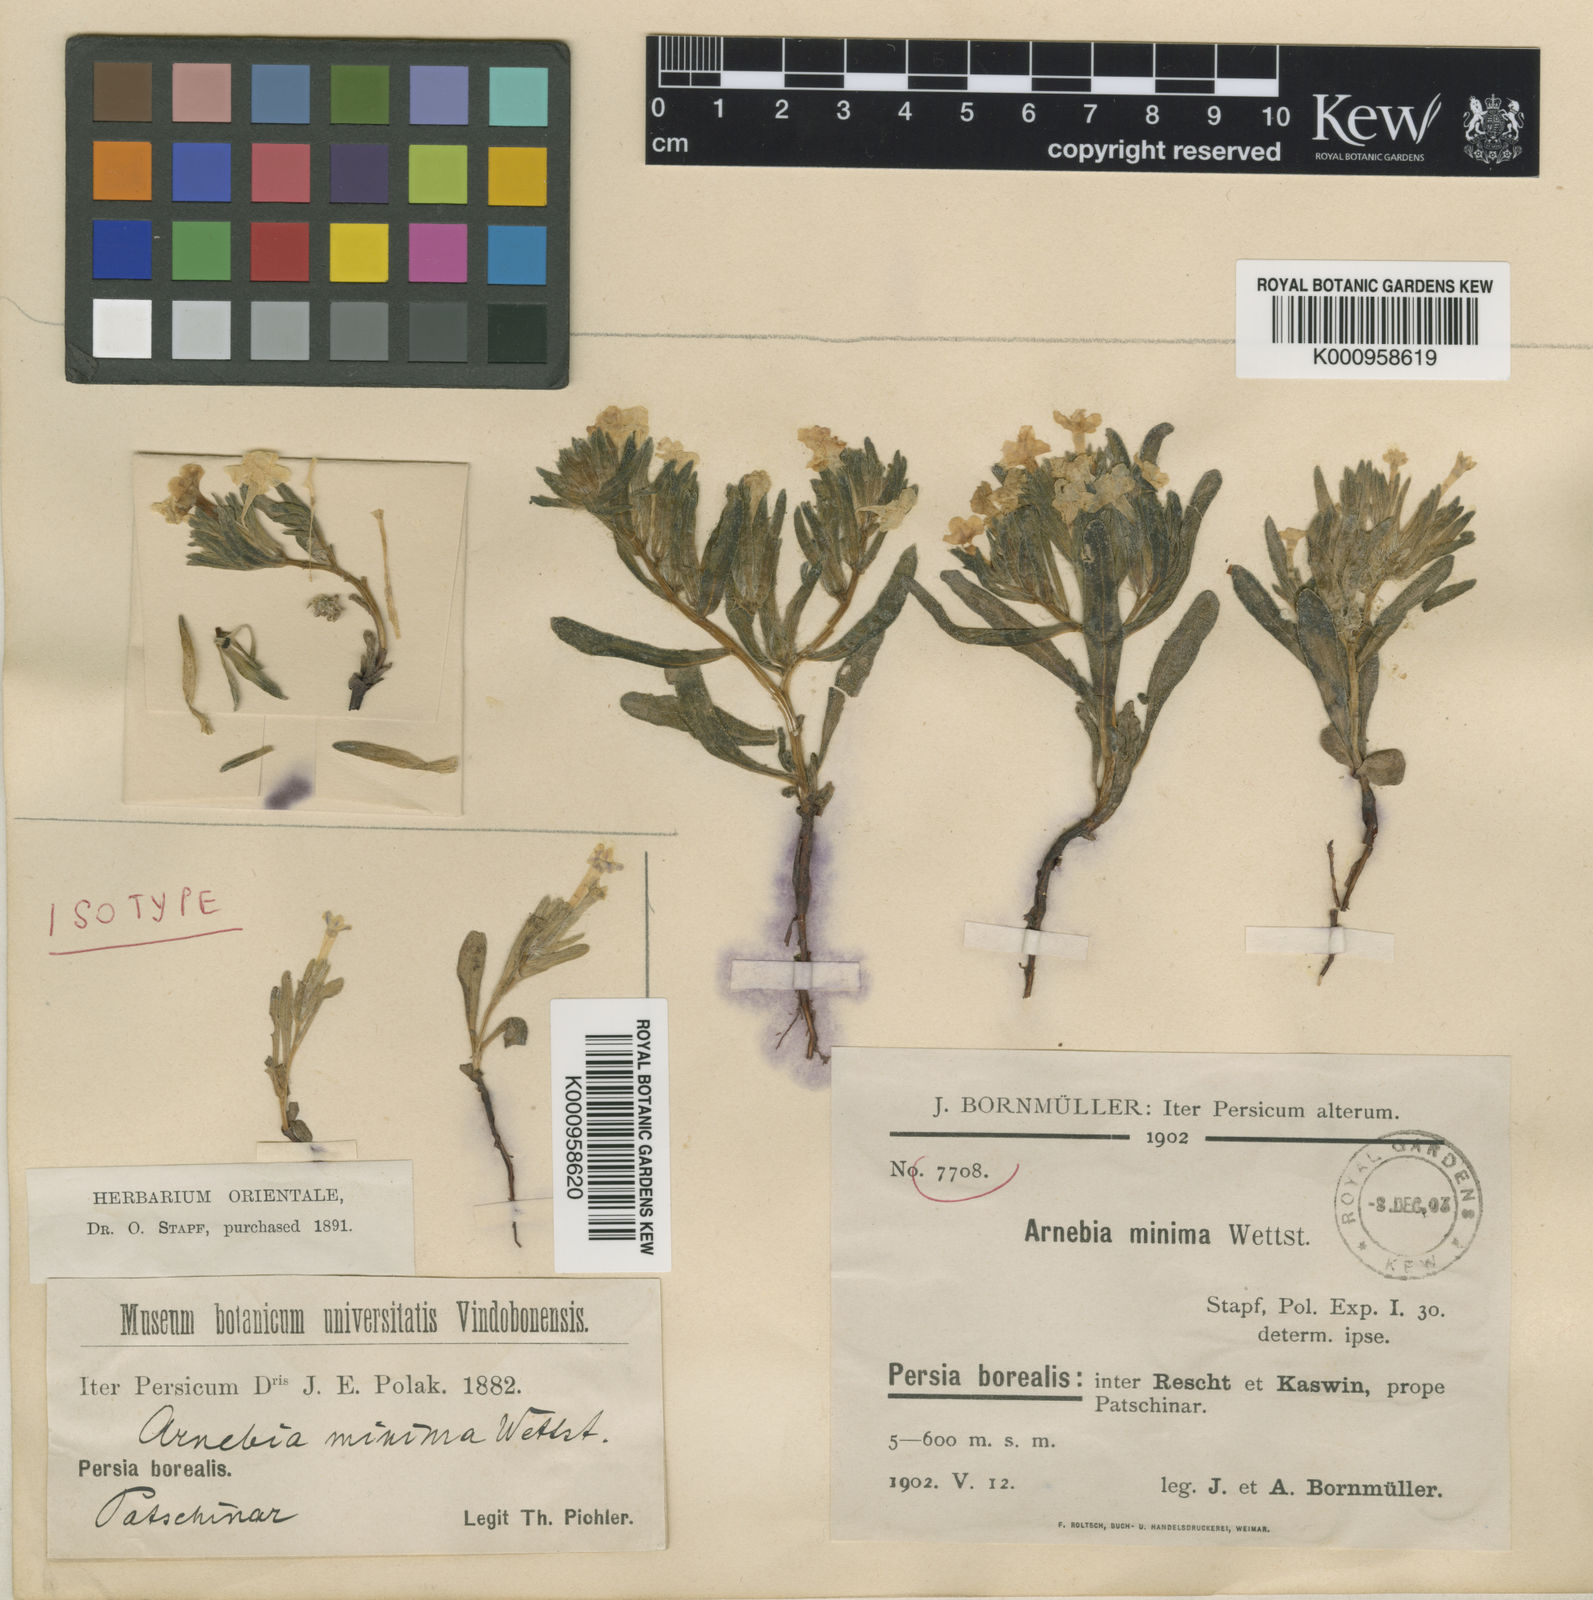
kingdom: Plantae
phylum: Tracheophyta
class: Magnoliopsida
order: Boraginales
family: Boraginaceae
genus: Arnebia
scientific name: Arnebia minima
